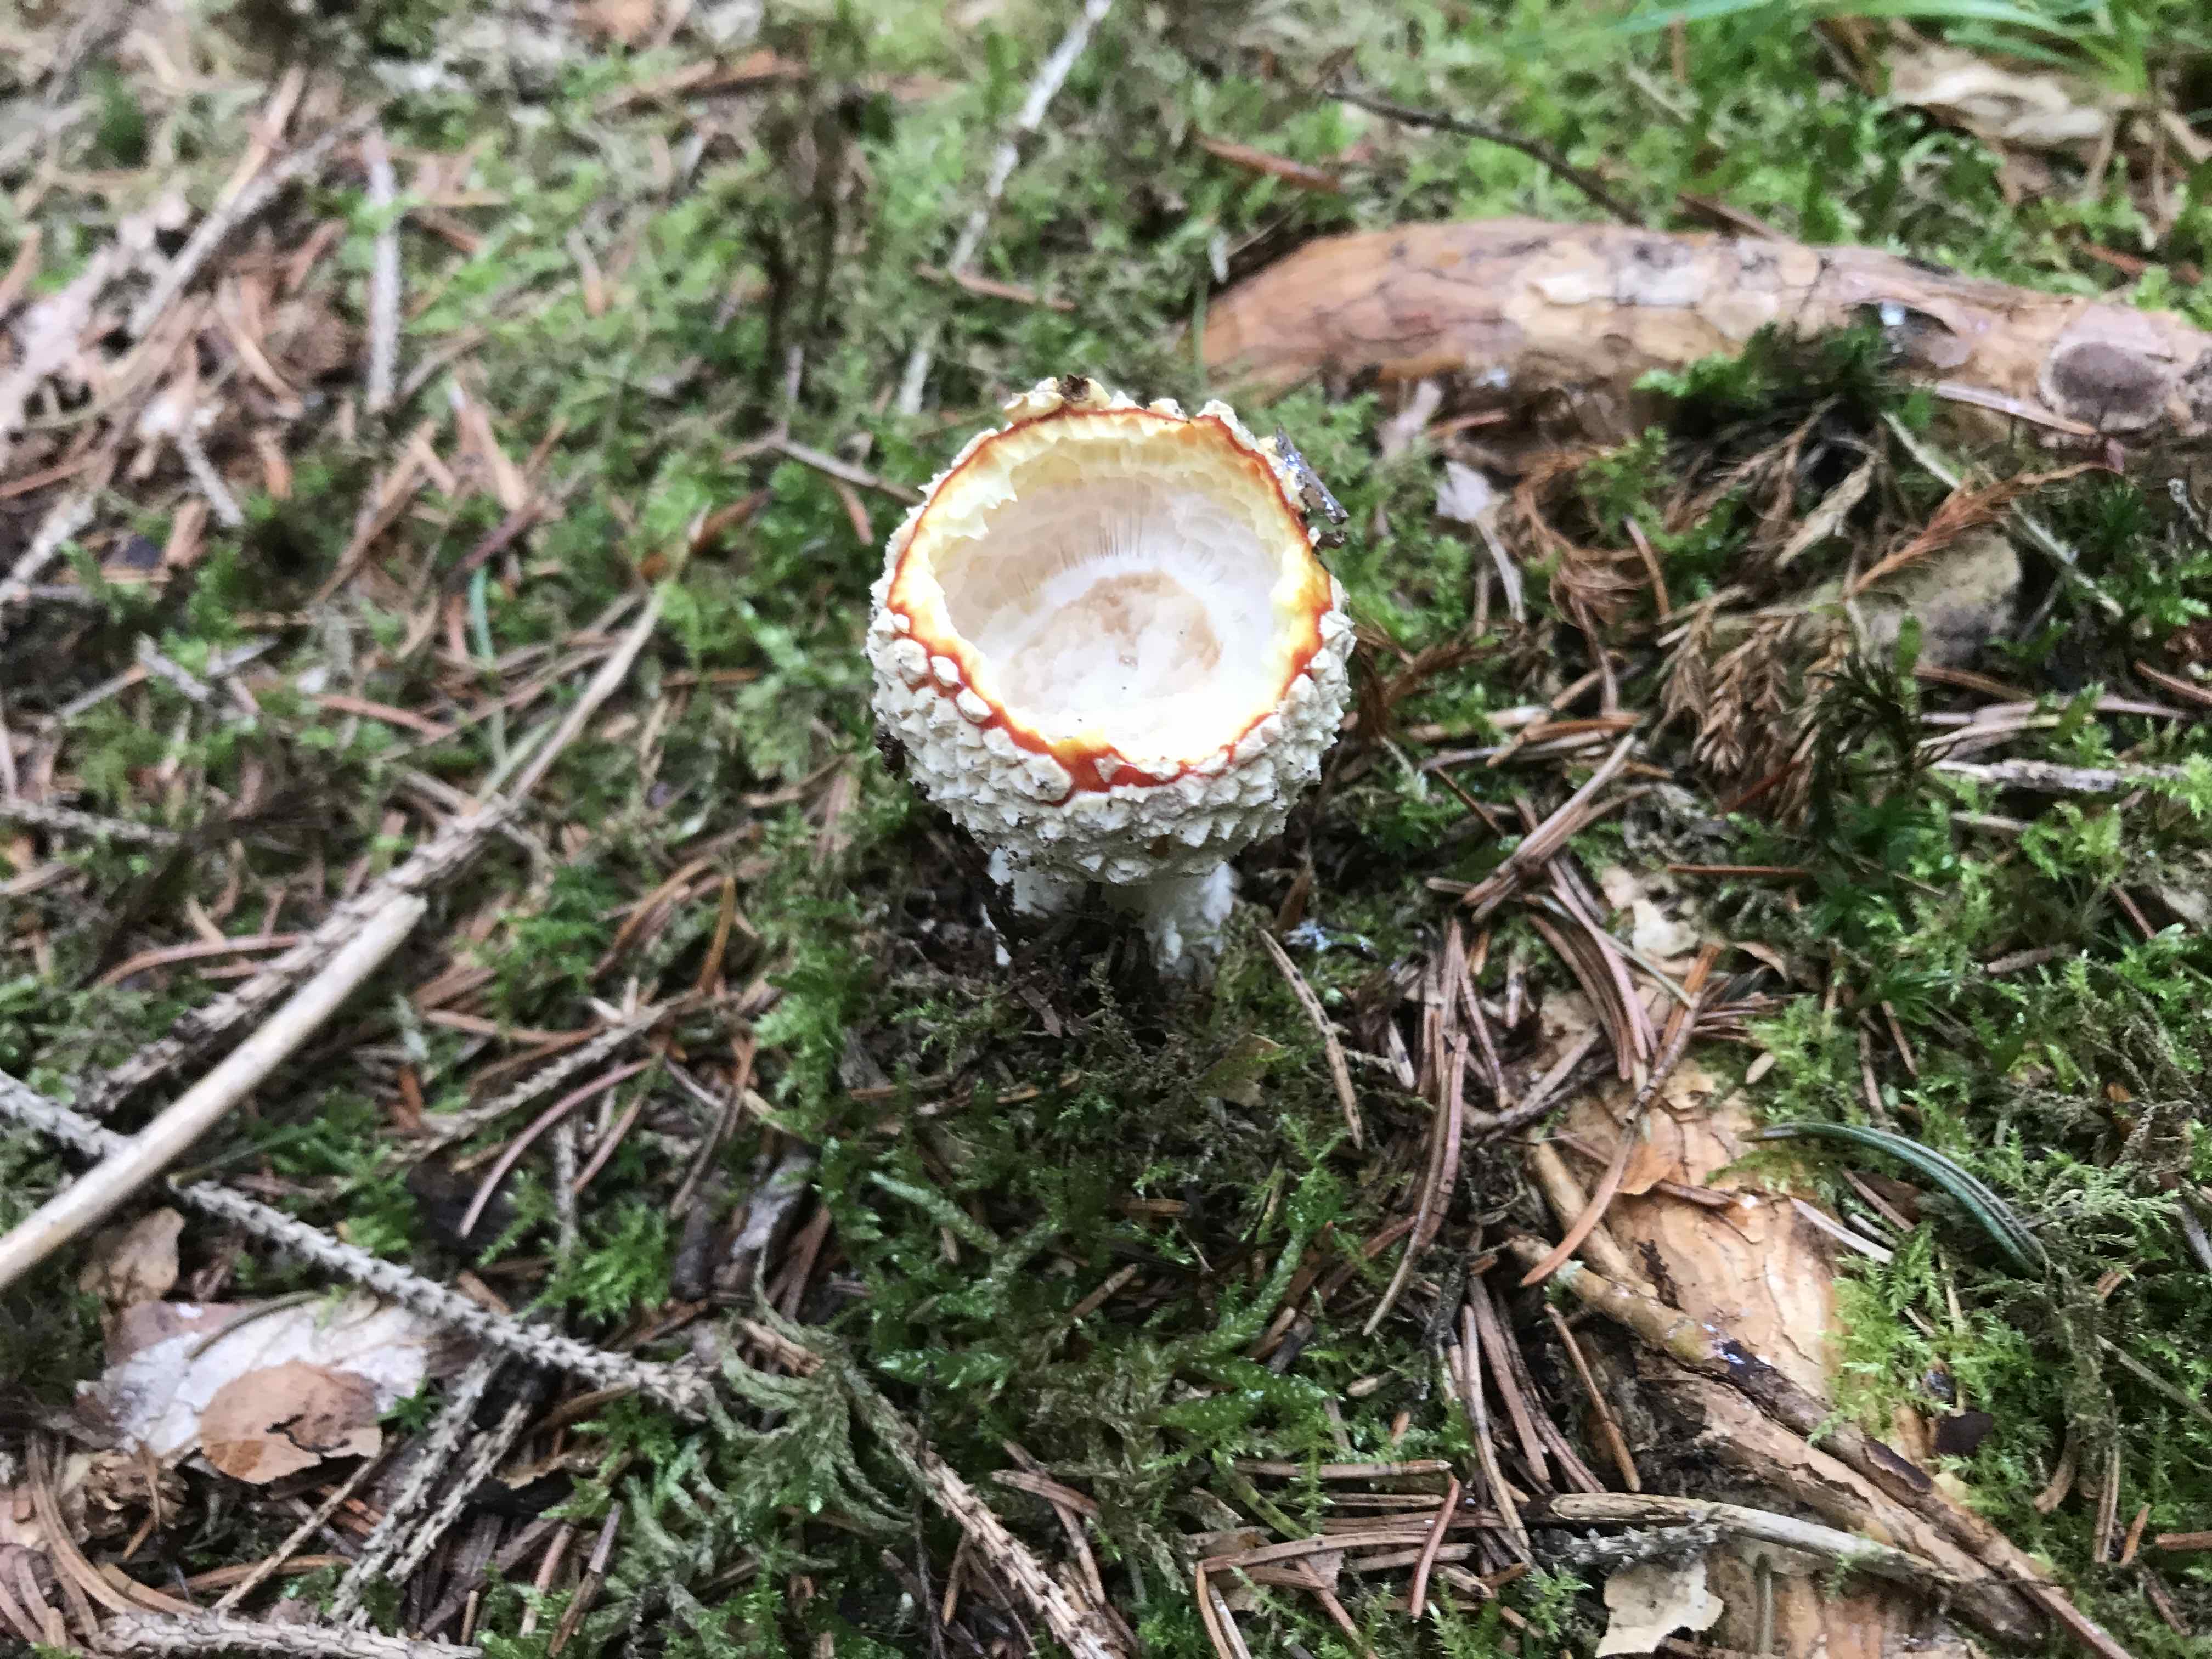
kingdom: Fungi
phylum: Basidiomycota
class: Agaricomycetes
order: Agaricales
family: Amanitaceae
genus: Amanita
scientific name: Amanita muscaria
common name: rød fluesvamp
